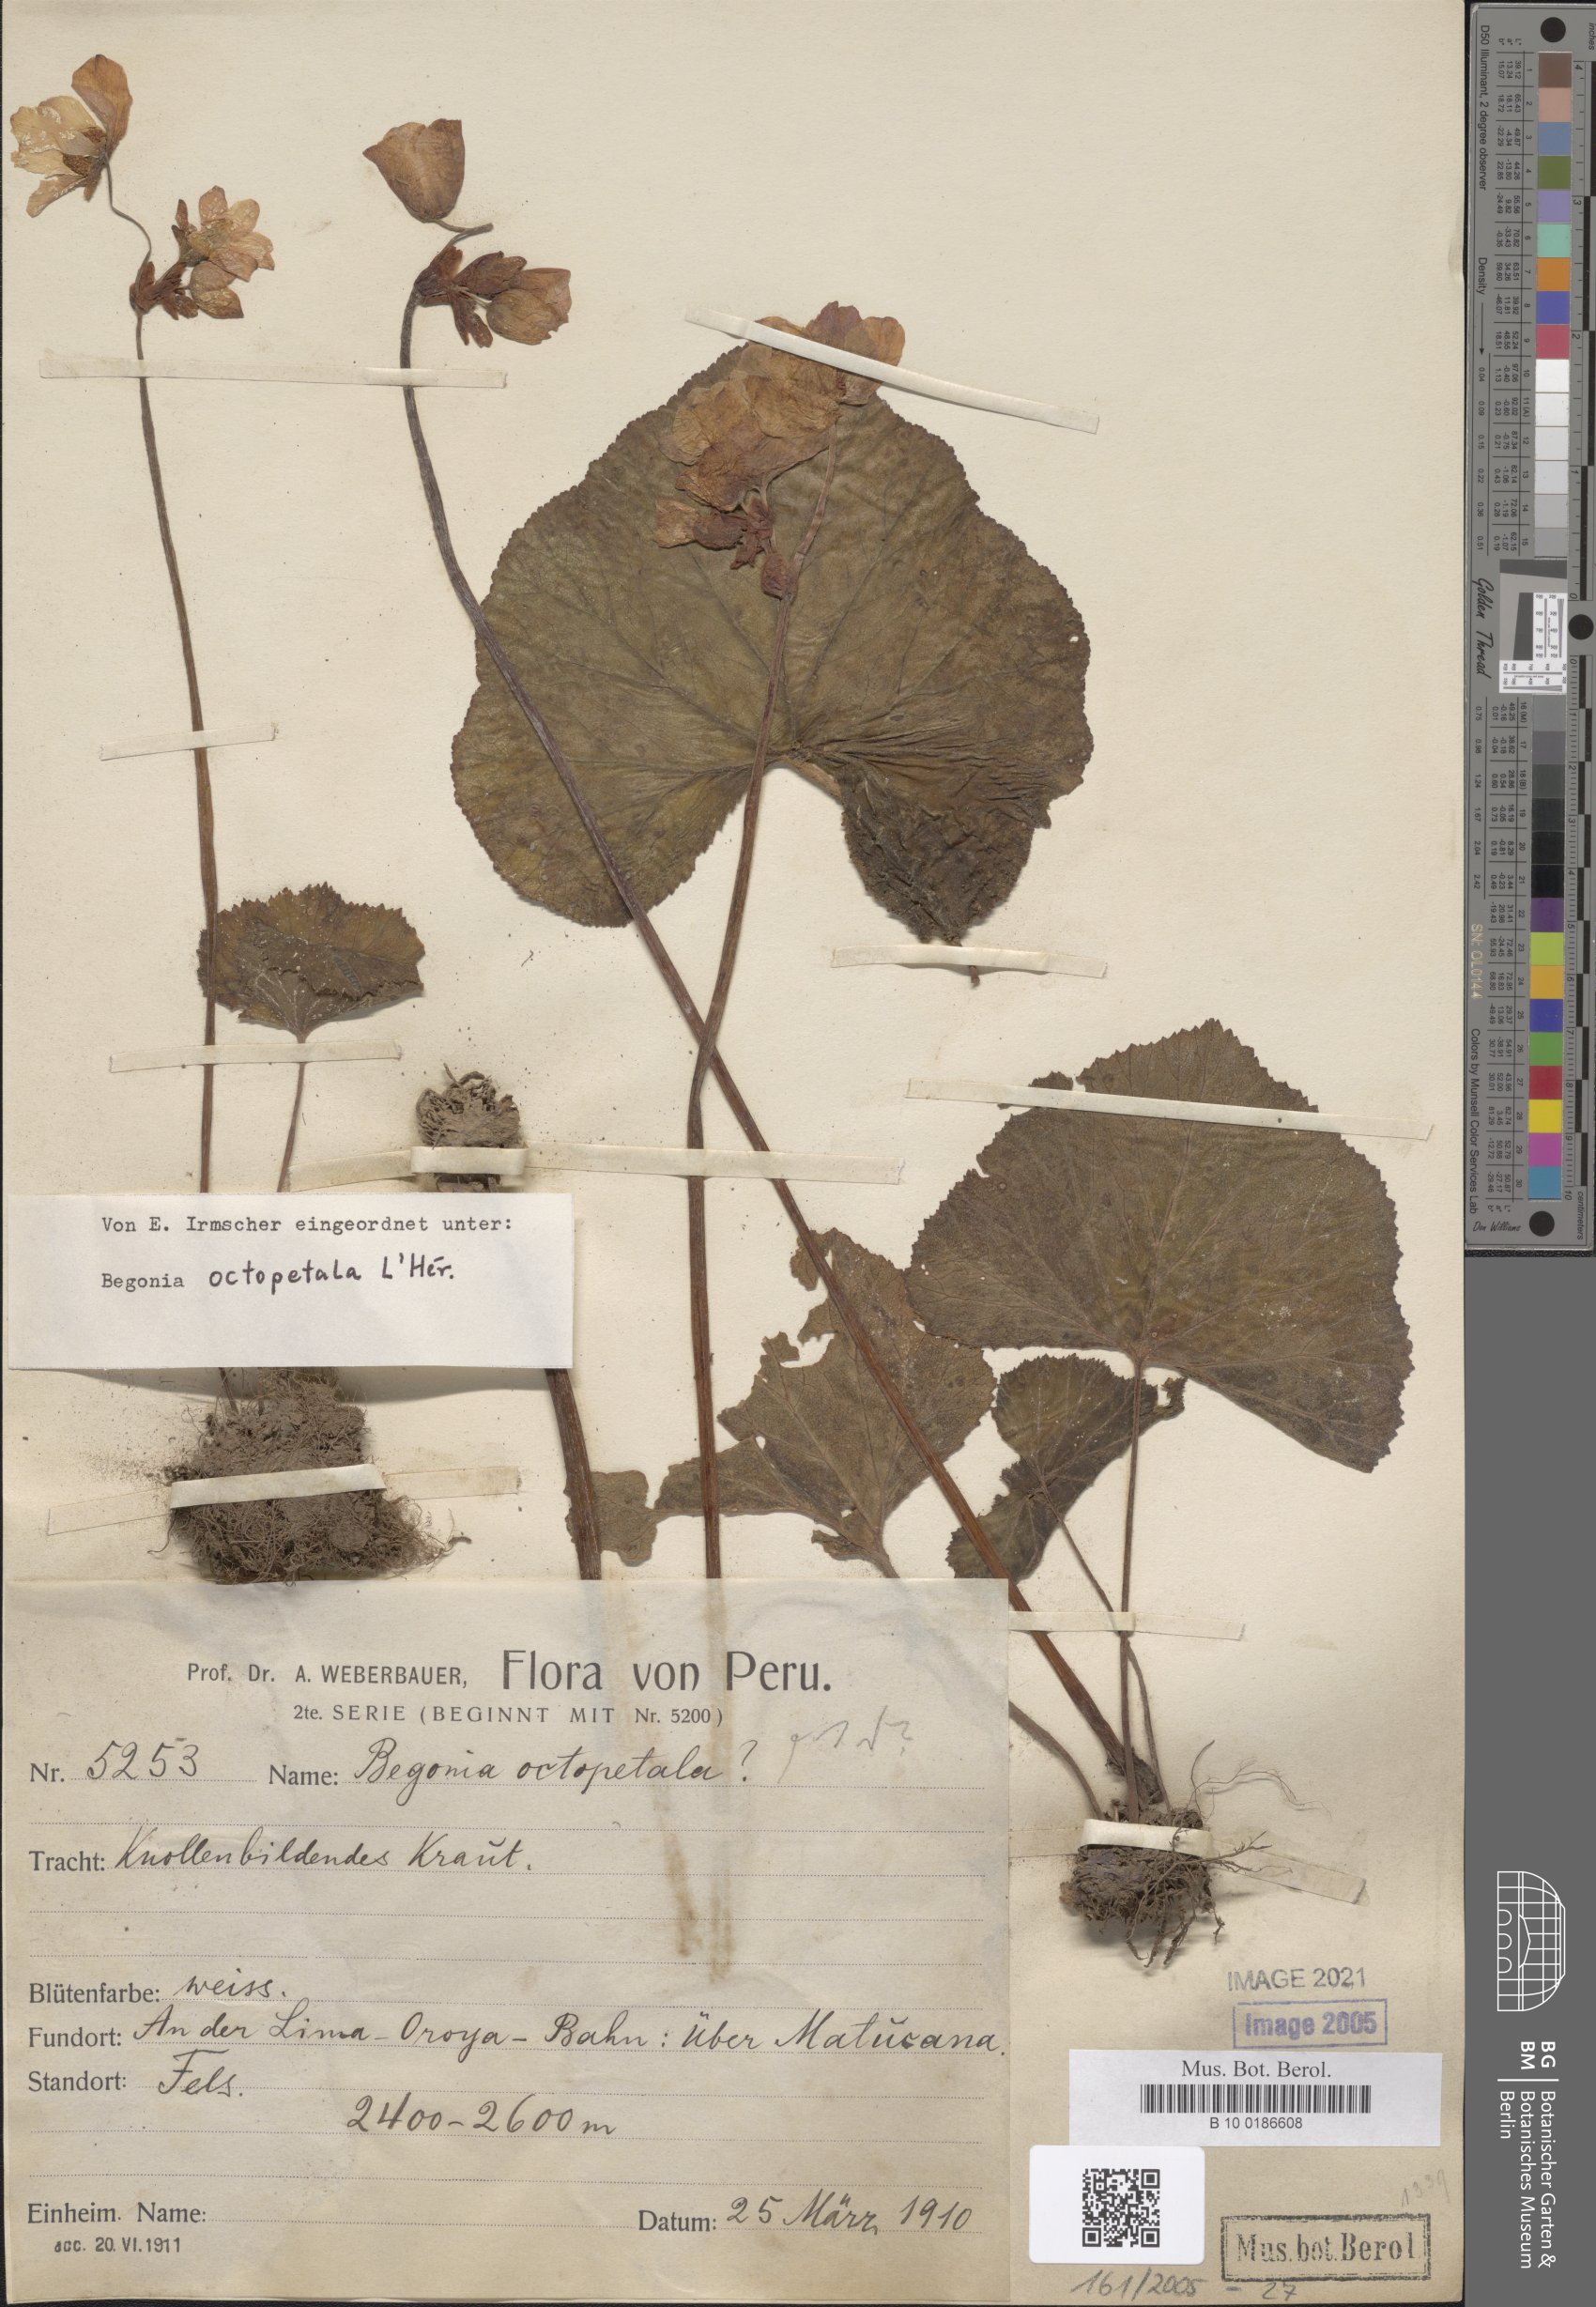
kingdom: Plantae
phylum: Tracheophyta
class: Magnoliopsida
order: Cucurbitales
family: Begoniaceae
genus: Begonia
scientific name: Begonia octopetala
